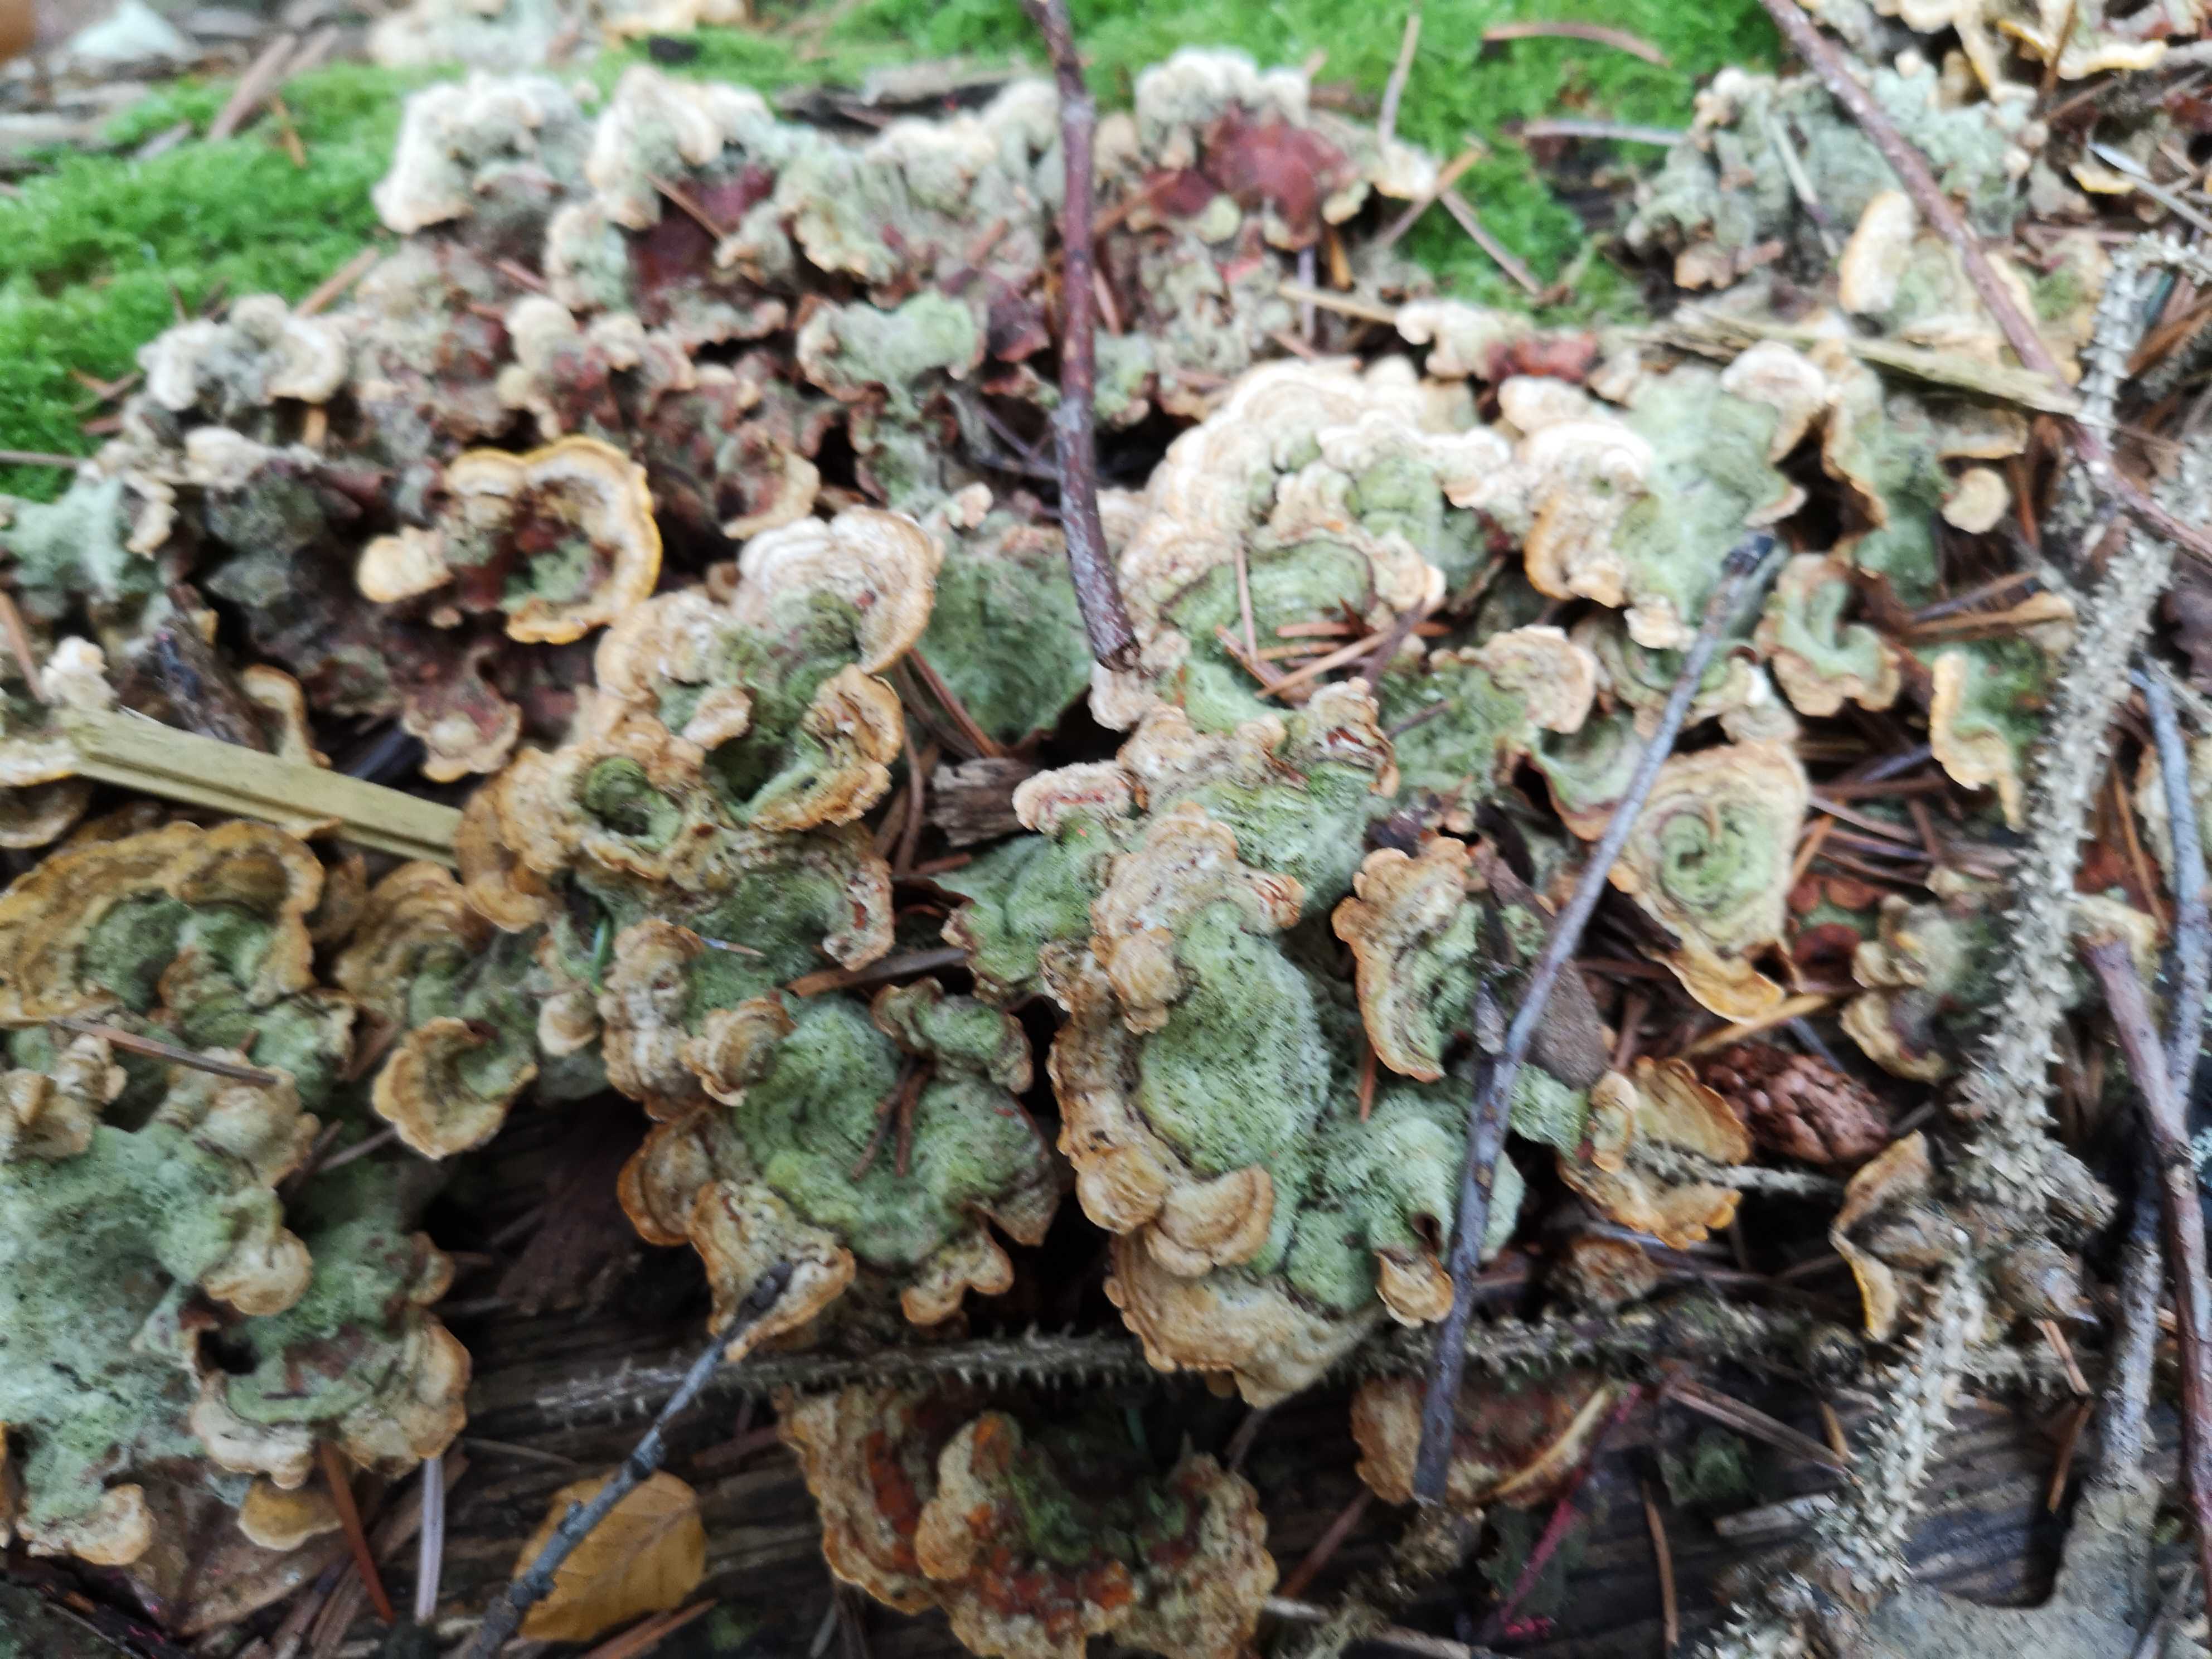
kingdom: Fungi
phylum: Basidiomycota
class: Agaricomycetes
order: Russulales
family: Stereaceae
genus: Stereum
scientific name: Stereum hirsutum
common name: håret lædersvamp
